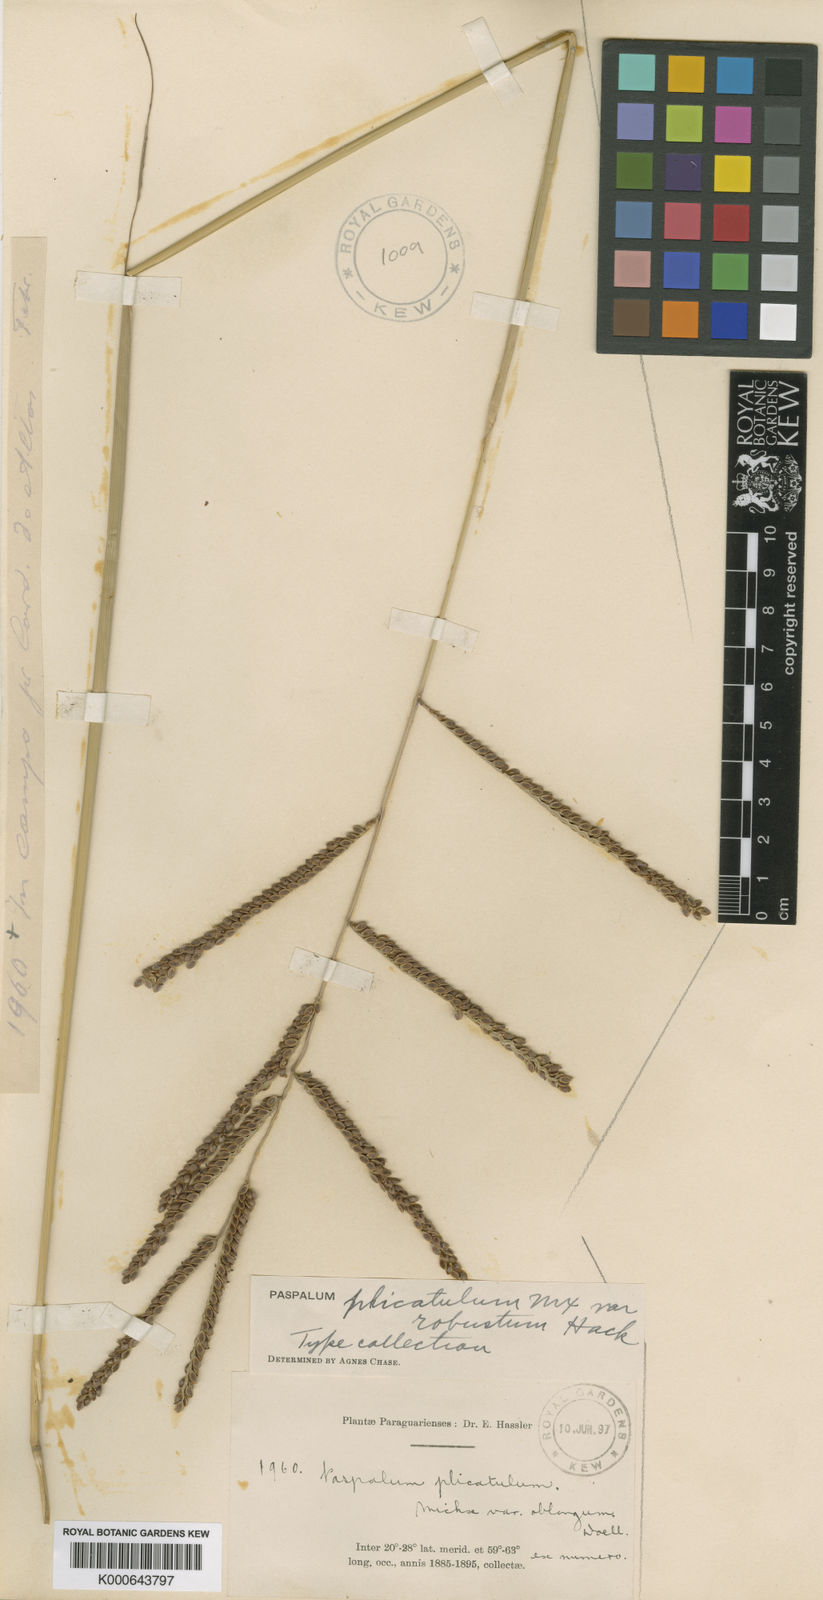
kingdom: Plantae
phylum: Tracheophyta
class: Liliopsida
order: Poales
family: Poaceae
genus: Paspalum
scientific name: Paspalum guenoarum
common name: Wintergreen paspalum
